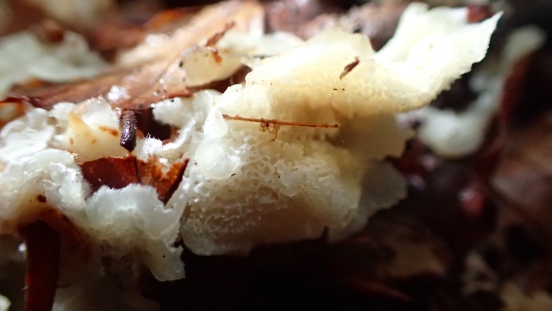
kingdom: Fungi
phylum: Basidiomycota
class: Agaricomycetes
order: Polyporales
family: Meruliaceae
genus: Physisporinus
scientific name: Physisporinus vitreus
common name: mastesvamp
